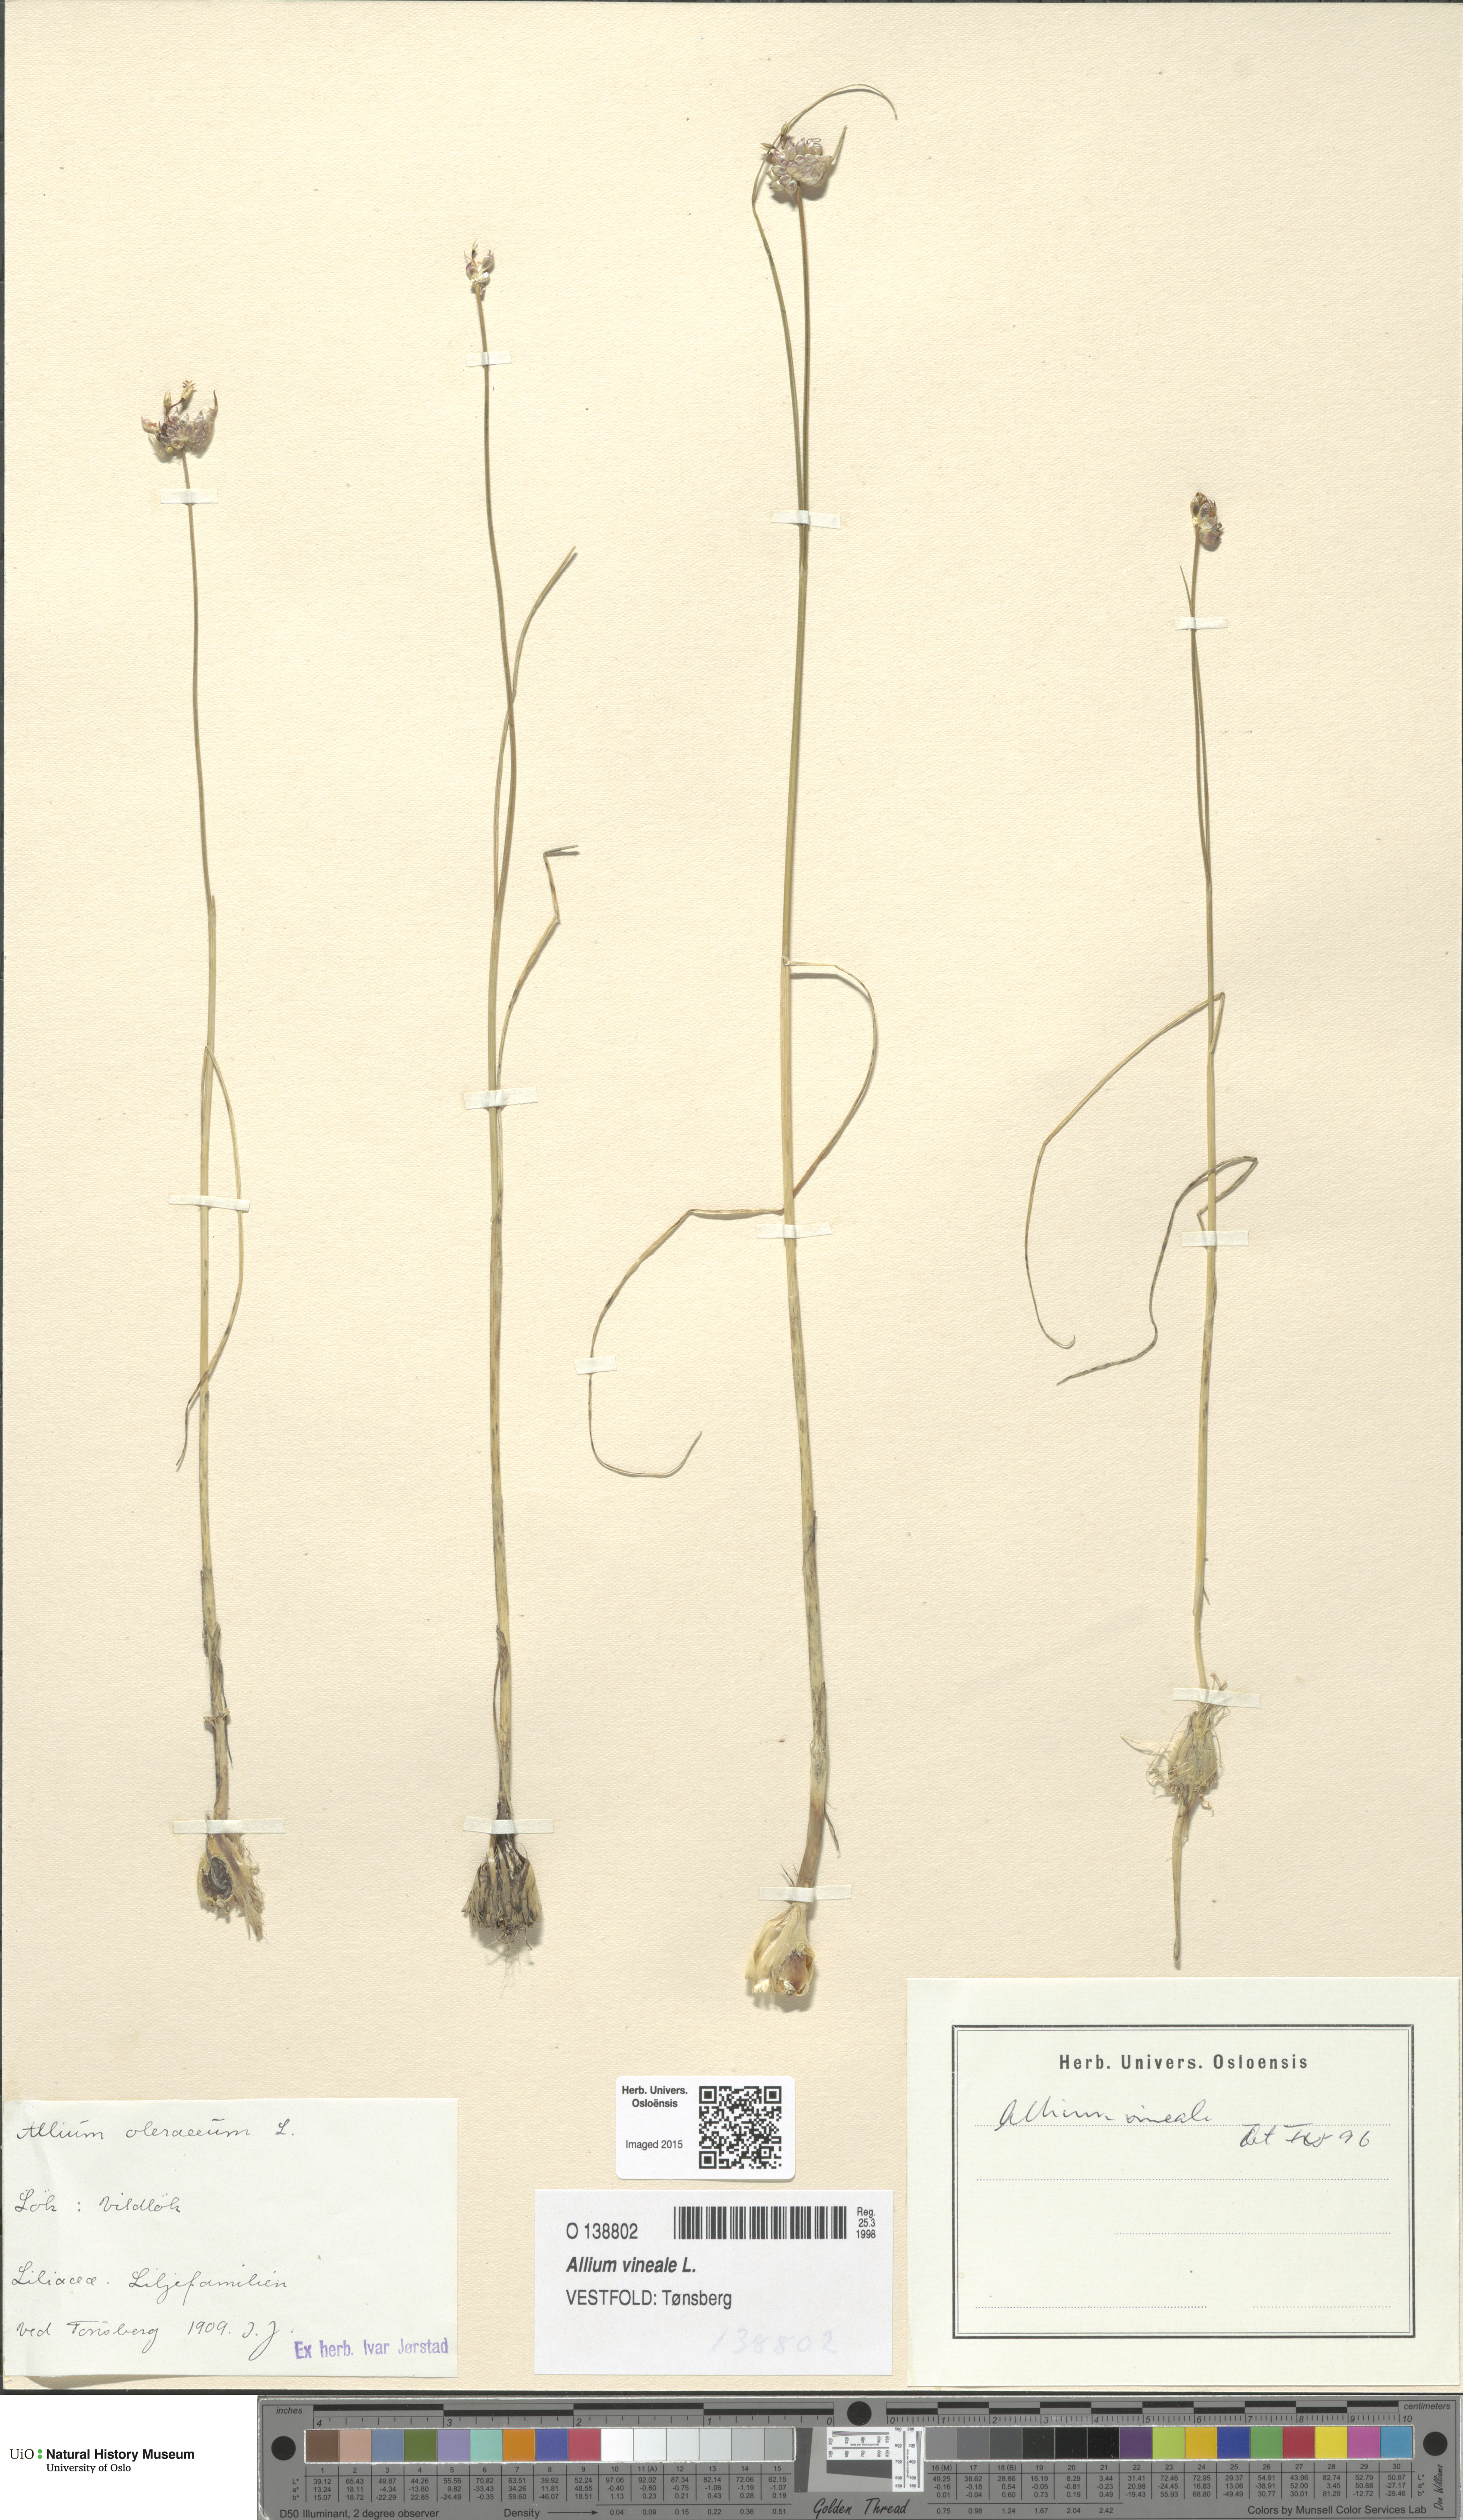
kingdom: Plantae
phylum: Tracheophyta
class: Liliopsida
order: Asparagales
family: Amaryllidaceae
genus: Allium
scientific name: Allium vineale
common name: Crow garlic
